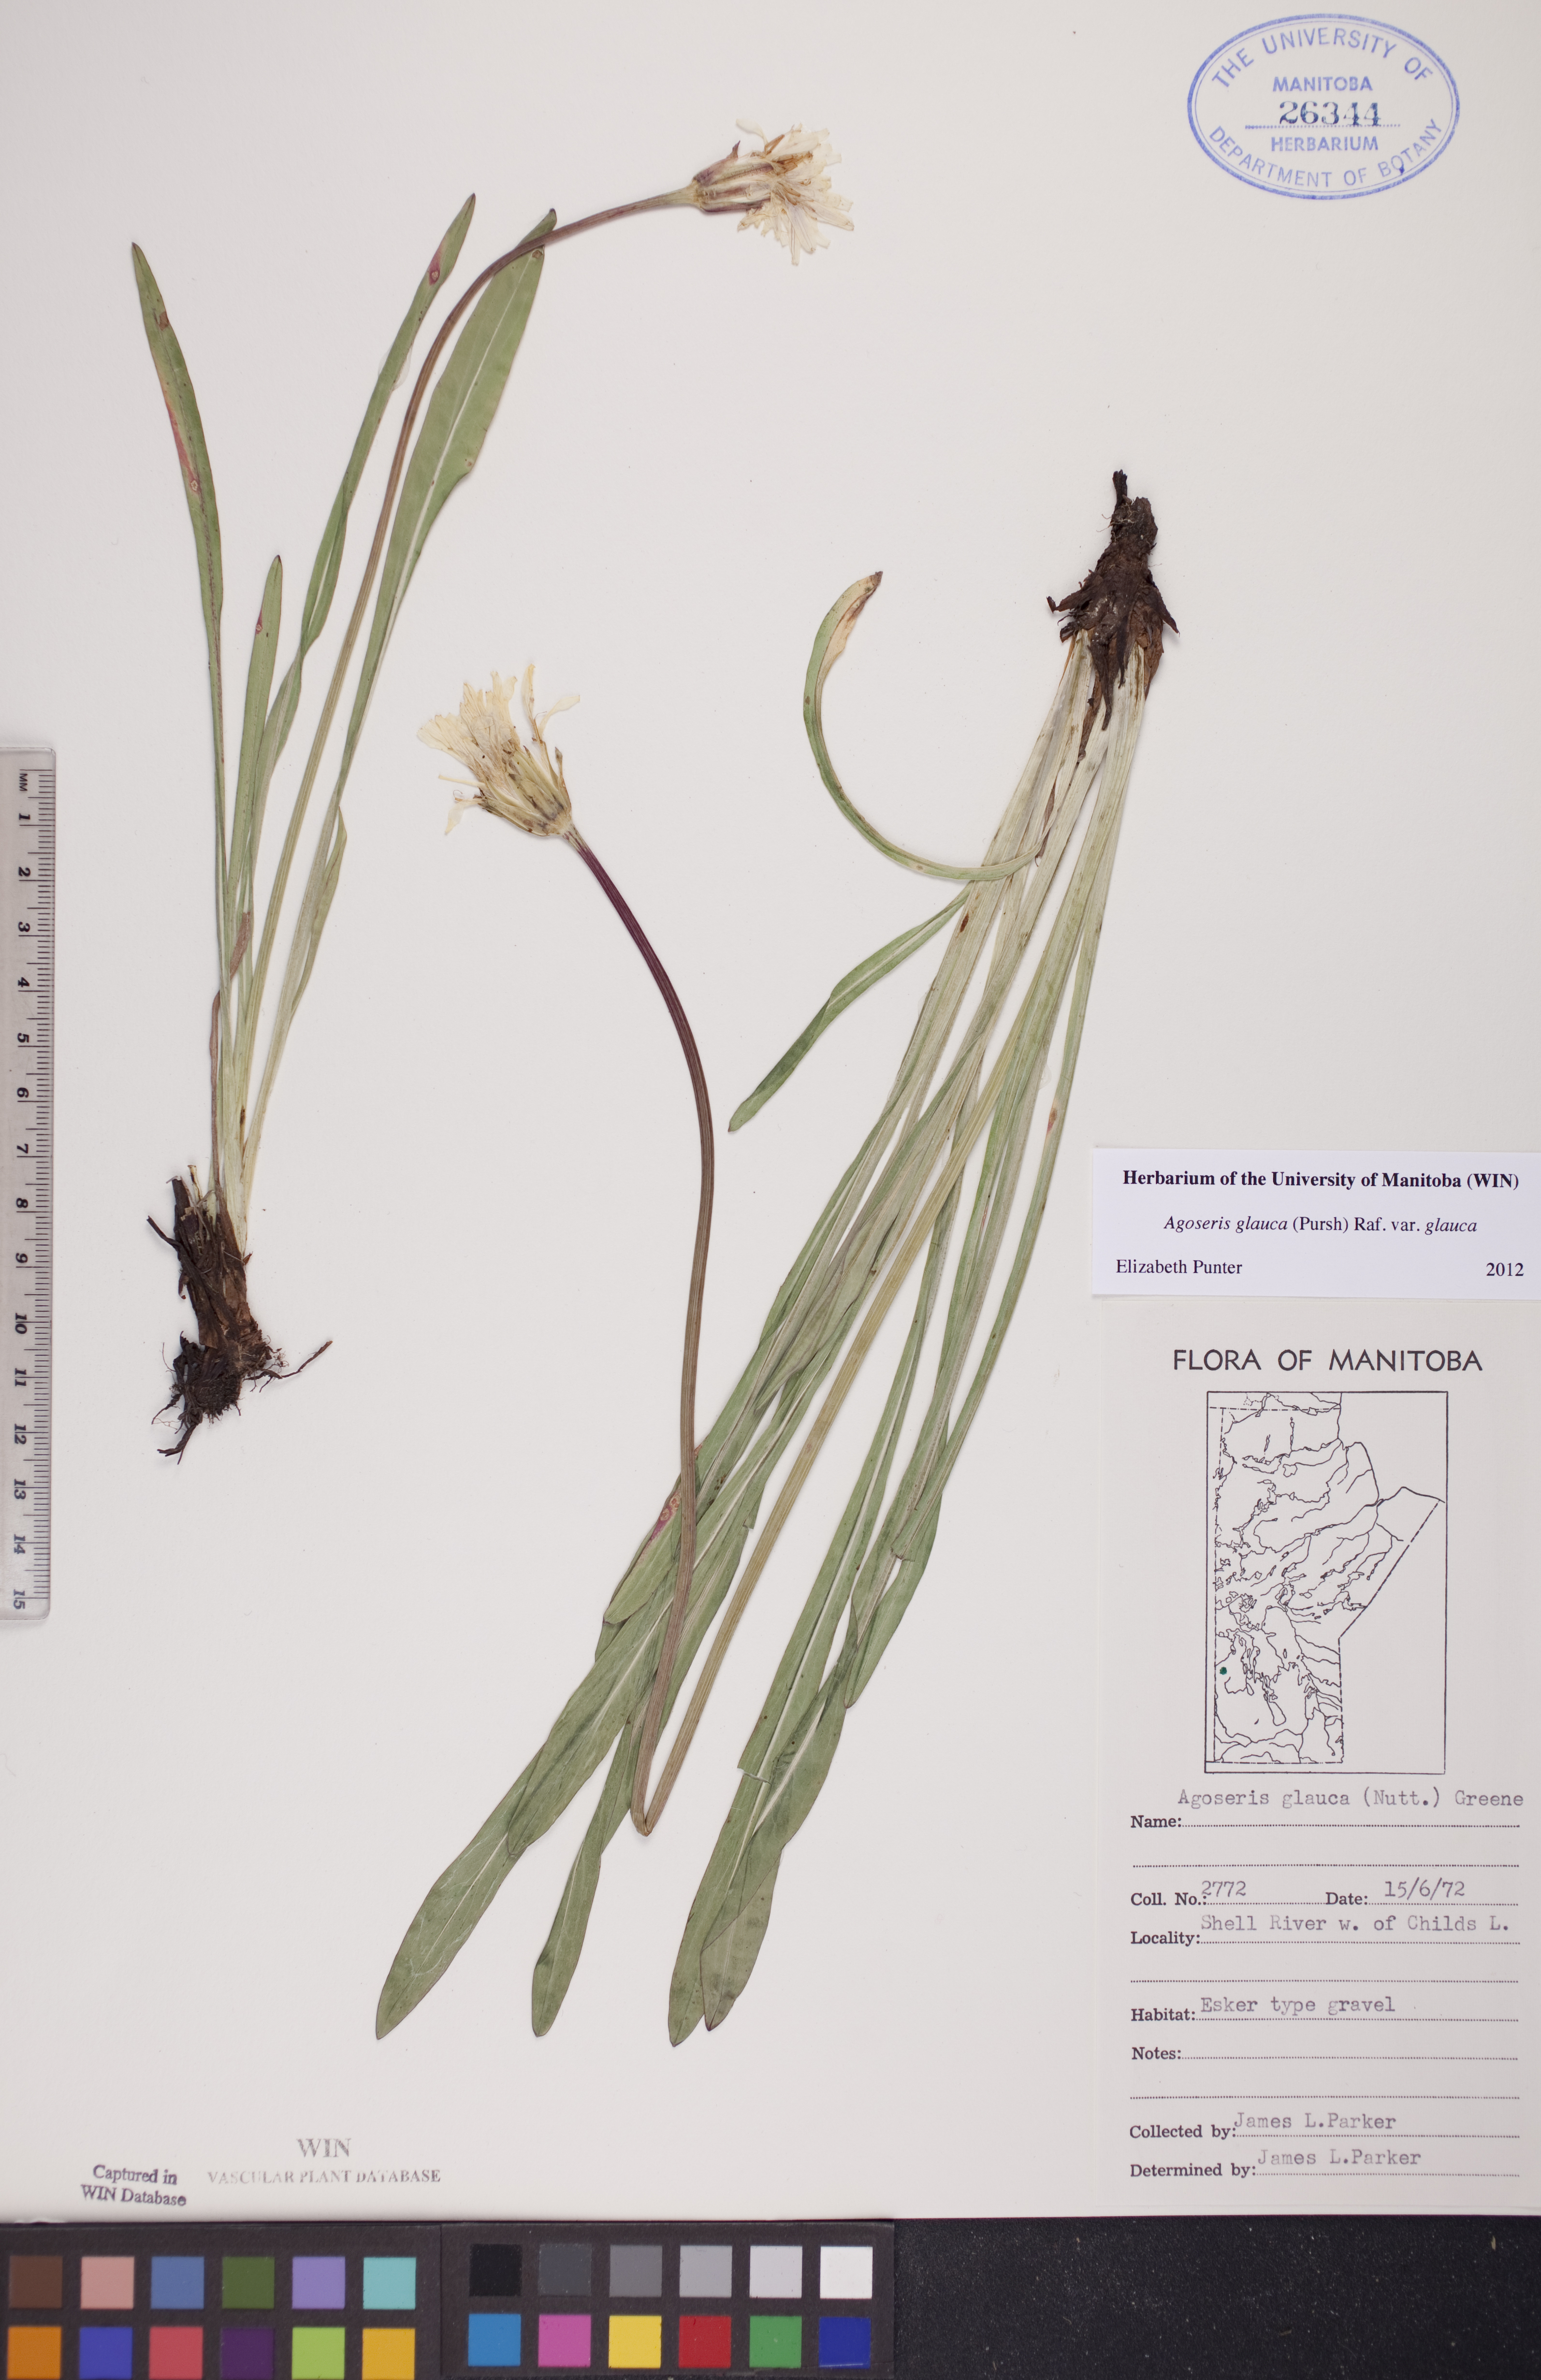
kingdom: Plantae
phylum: Tracheophyta
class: Magnoliopsida
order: Asterales
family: Asteraceae
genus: Agoseris
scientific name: Agoseris glauca
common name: Prairie agoseris
